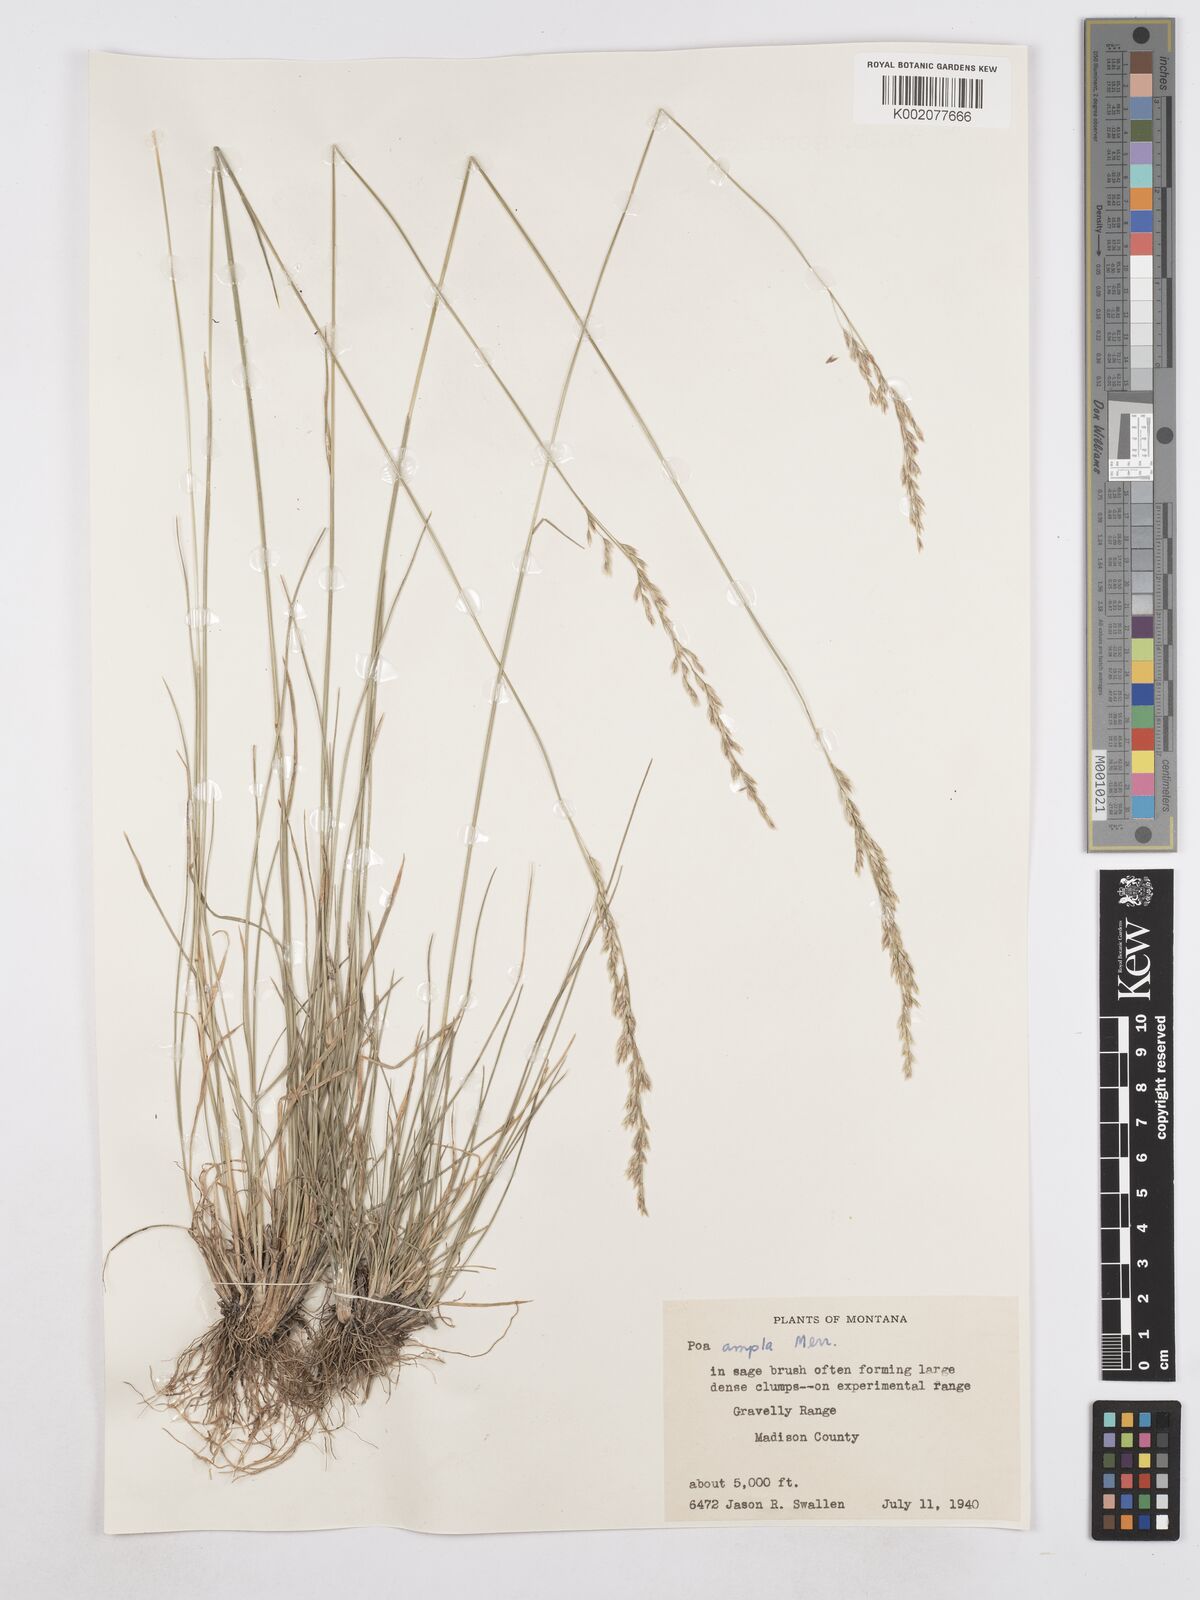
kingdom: Plantae
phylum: Tracheophyta
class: Liliopsida
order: Poales
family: Poaceae
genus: Poa
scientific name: Poa secunda
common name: Sandberg bluegrass
